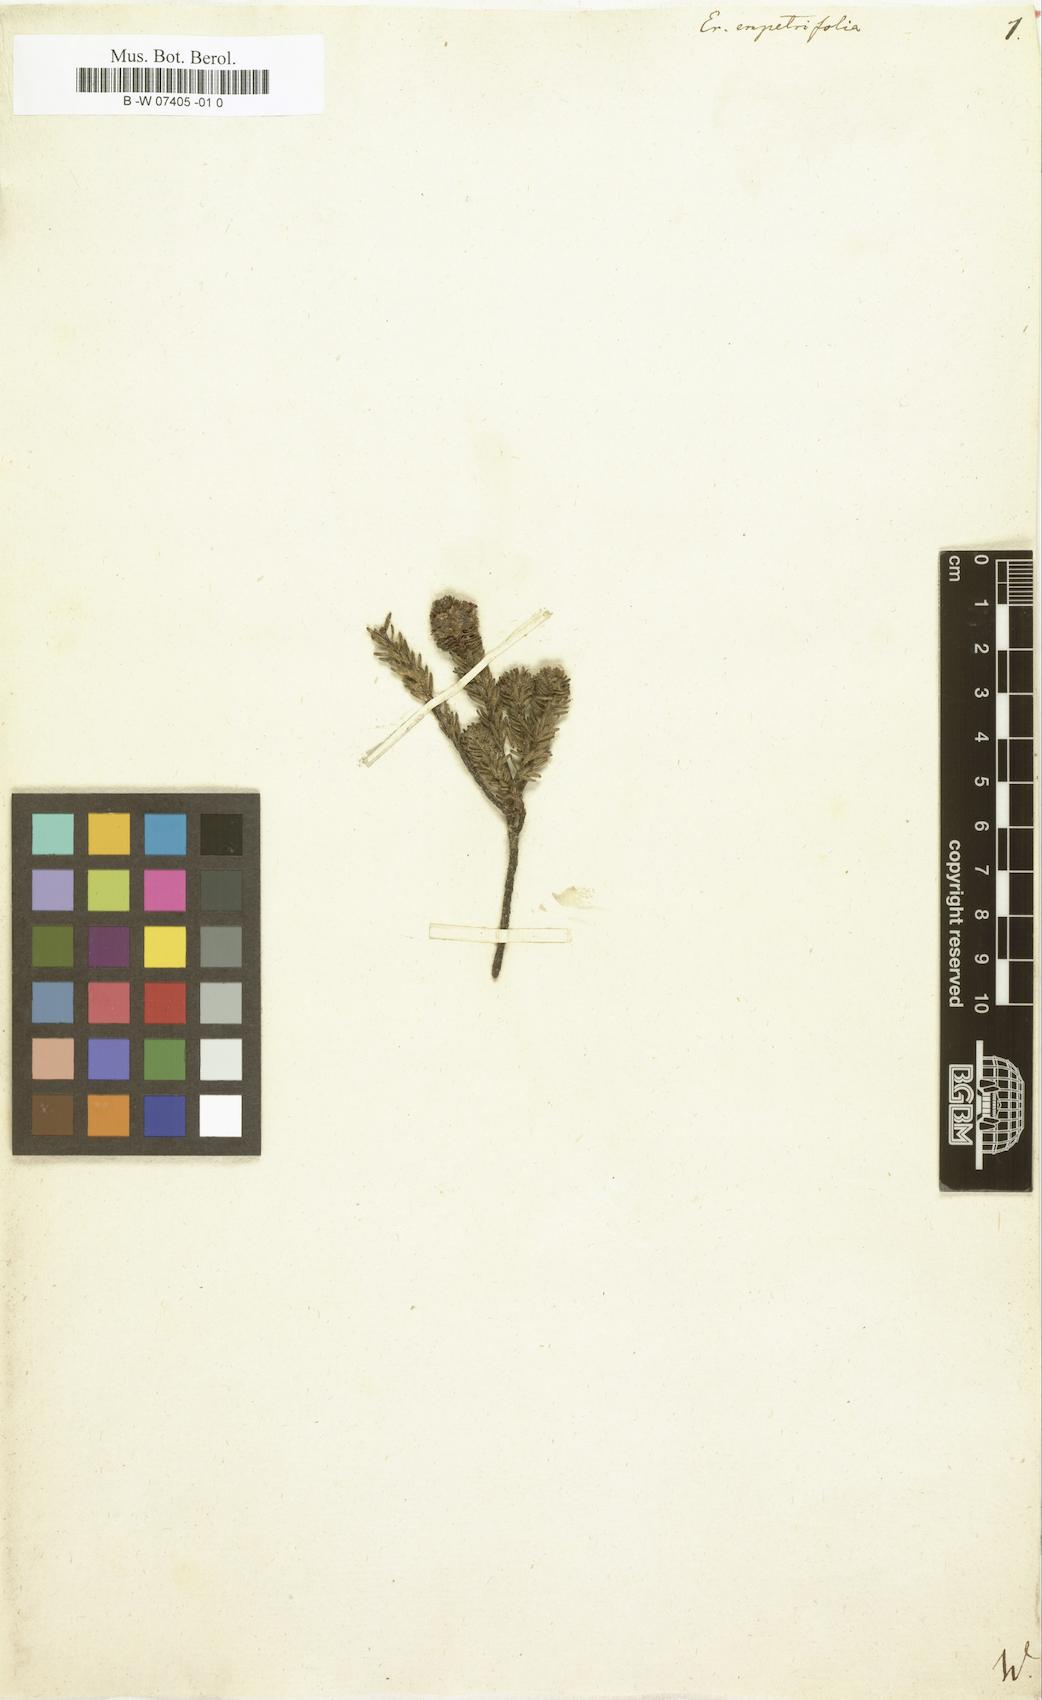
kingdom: Plantae
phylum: Tracheophyta
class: Magnoliopsida
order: Ericales
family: Ericaceae
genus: Erica
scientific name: Erica empetrina
